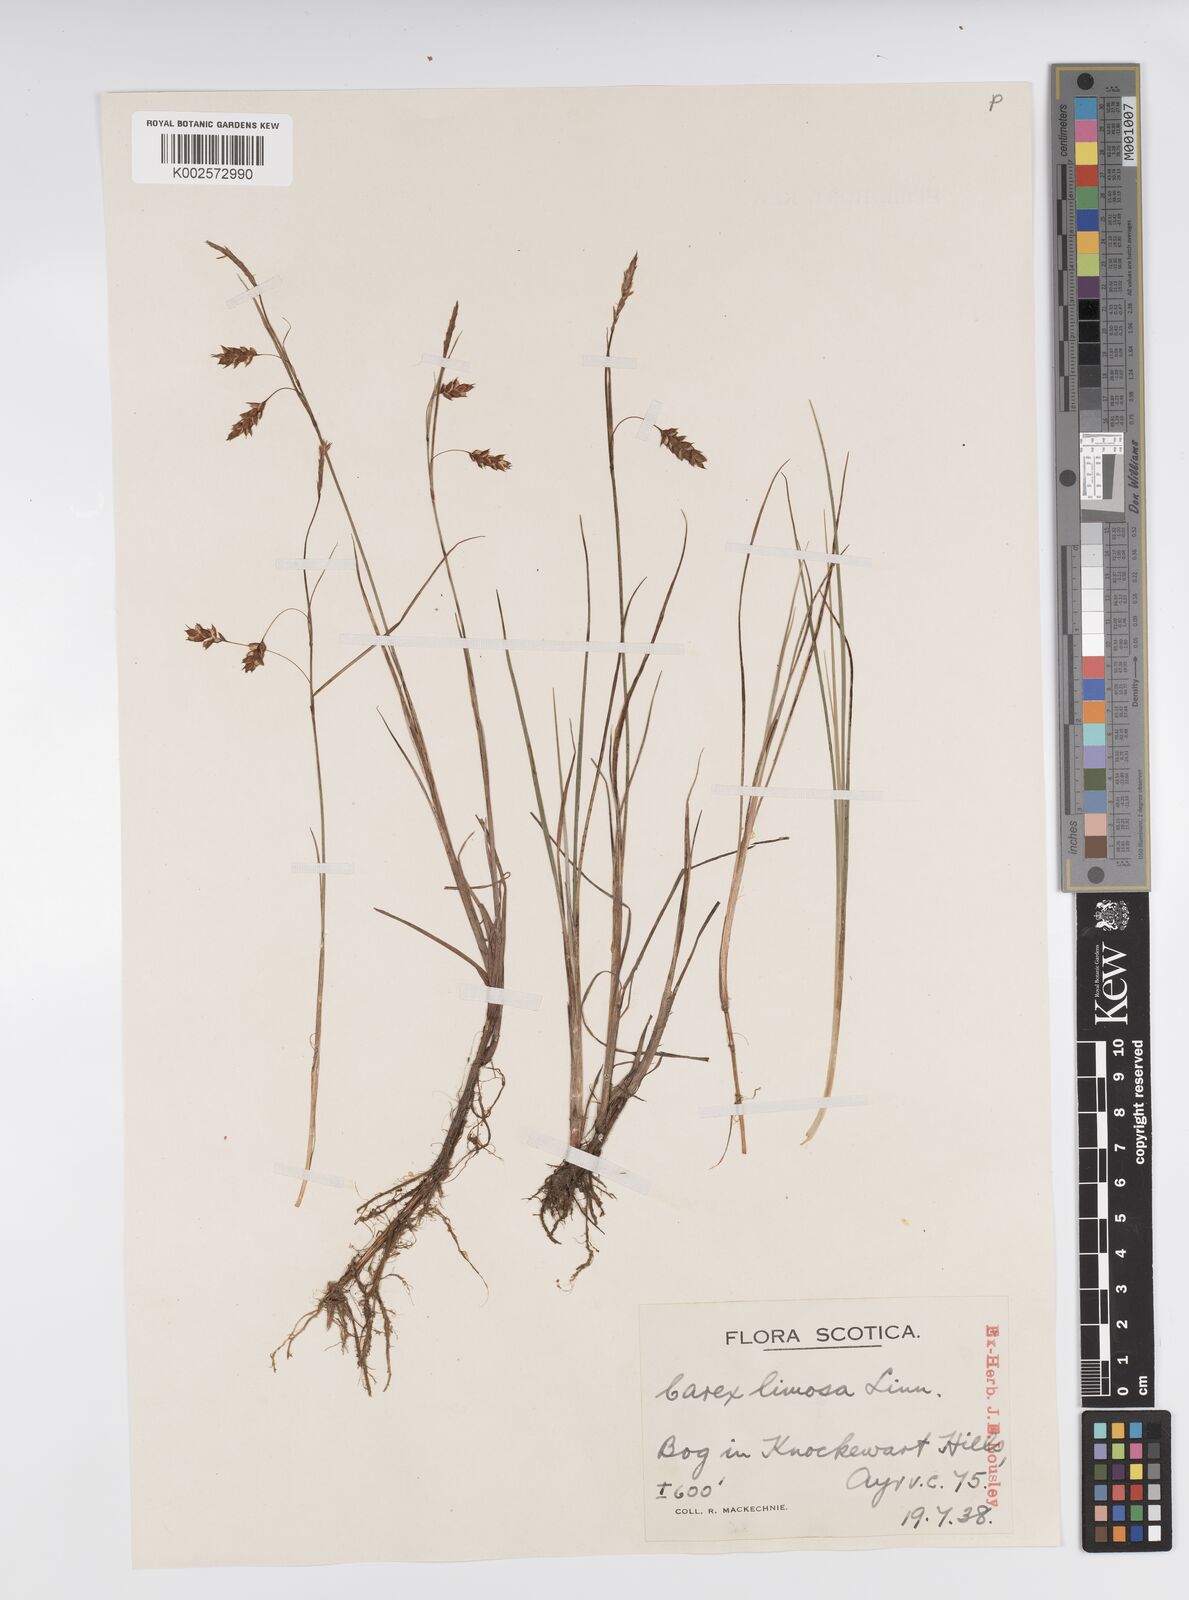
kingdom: Plantae
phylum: Tracheophyta
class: Liliopsida
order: Poales
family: Cyperaceae
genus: Carex
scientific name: Carex limosa
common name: Bog sedge
